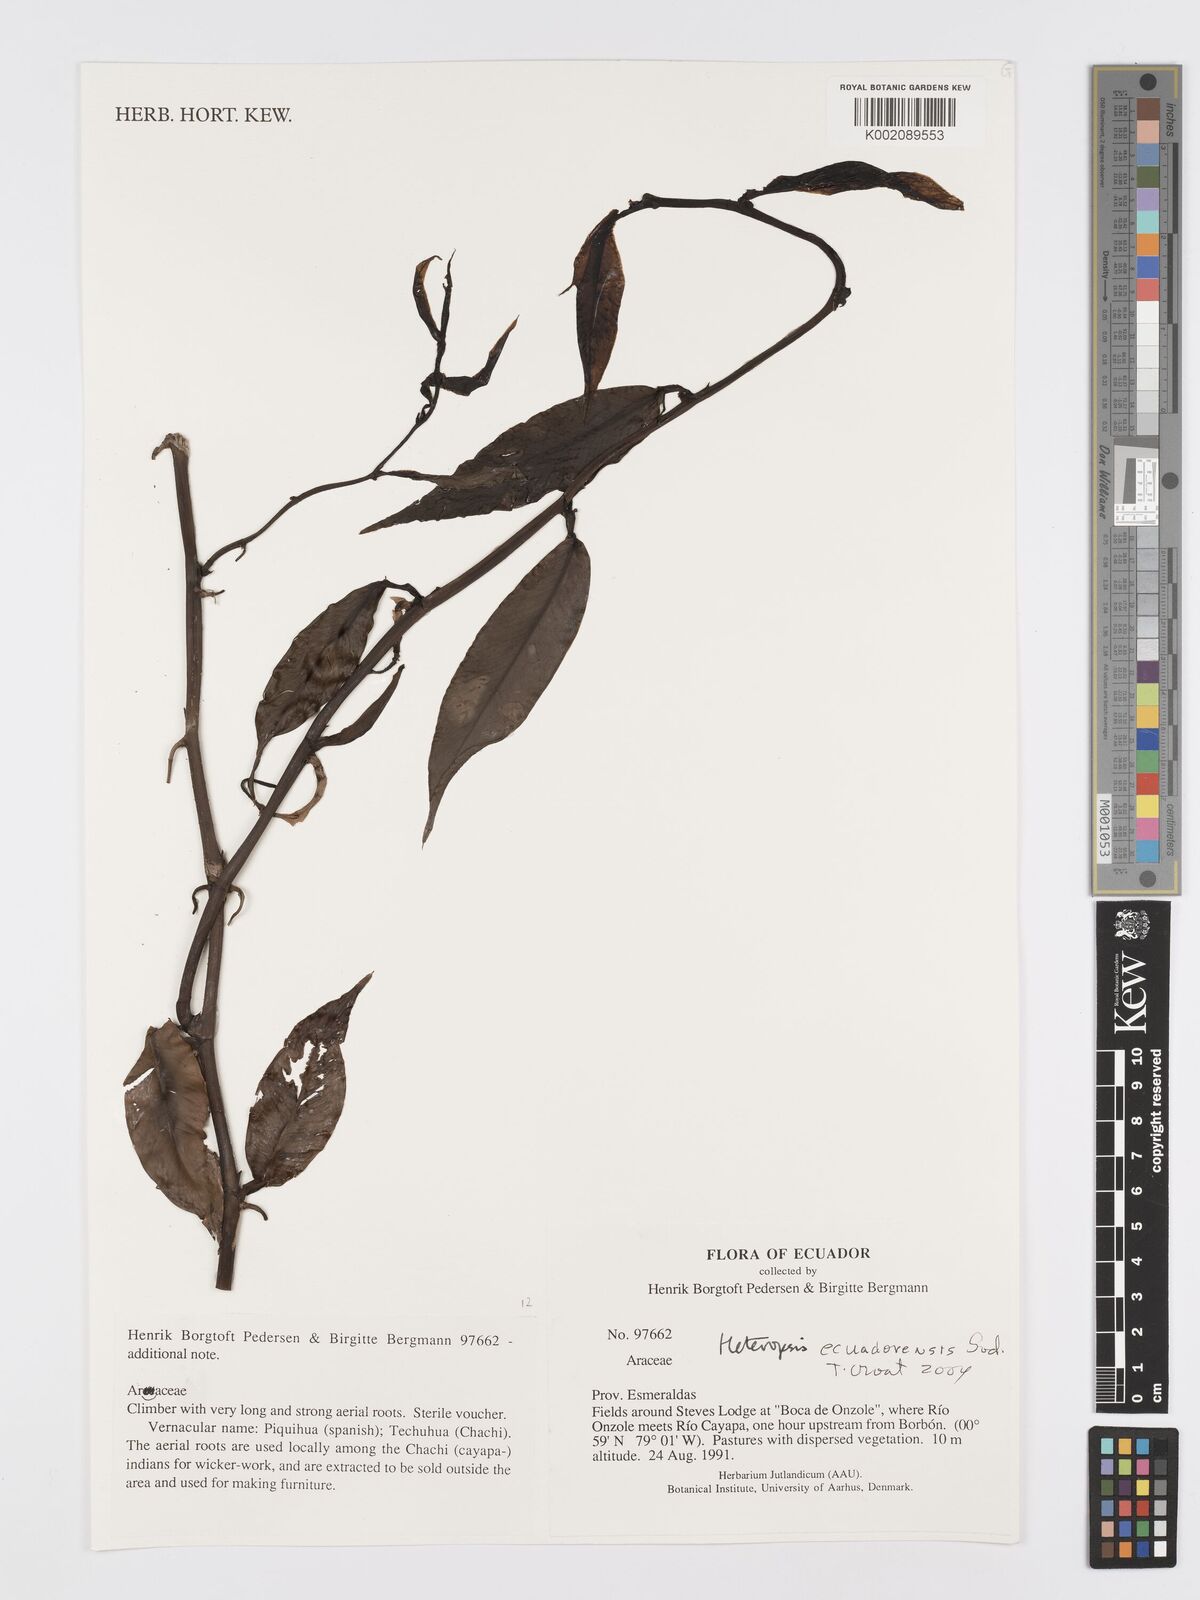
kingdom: Plantae
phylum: Tracheophyta
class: Liliopsida
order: Alismatales
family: Araceae
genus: Heteropsis
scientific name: Heteropsis ecuadorensis
